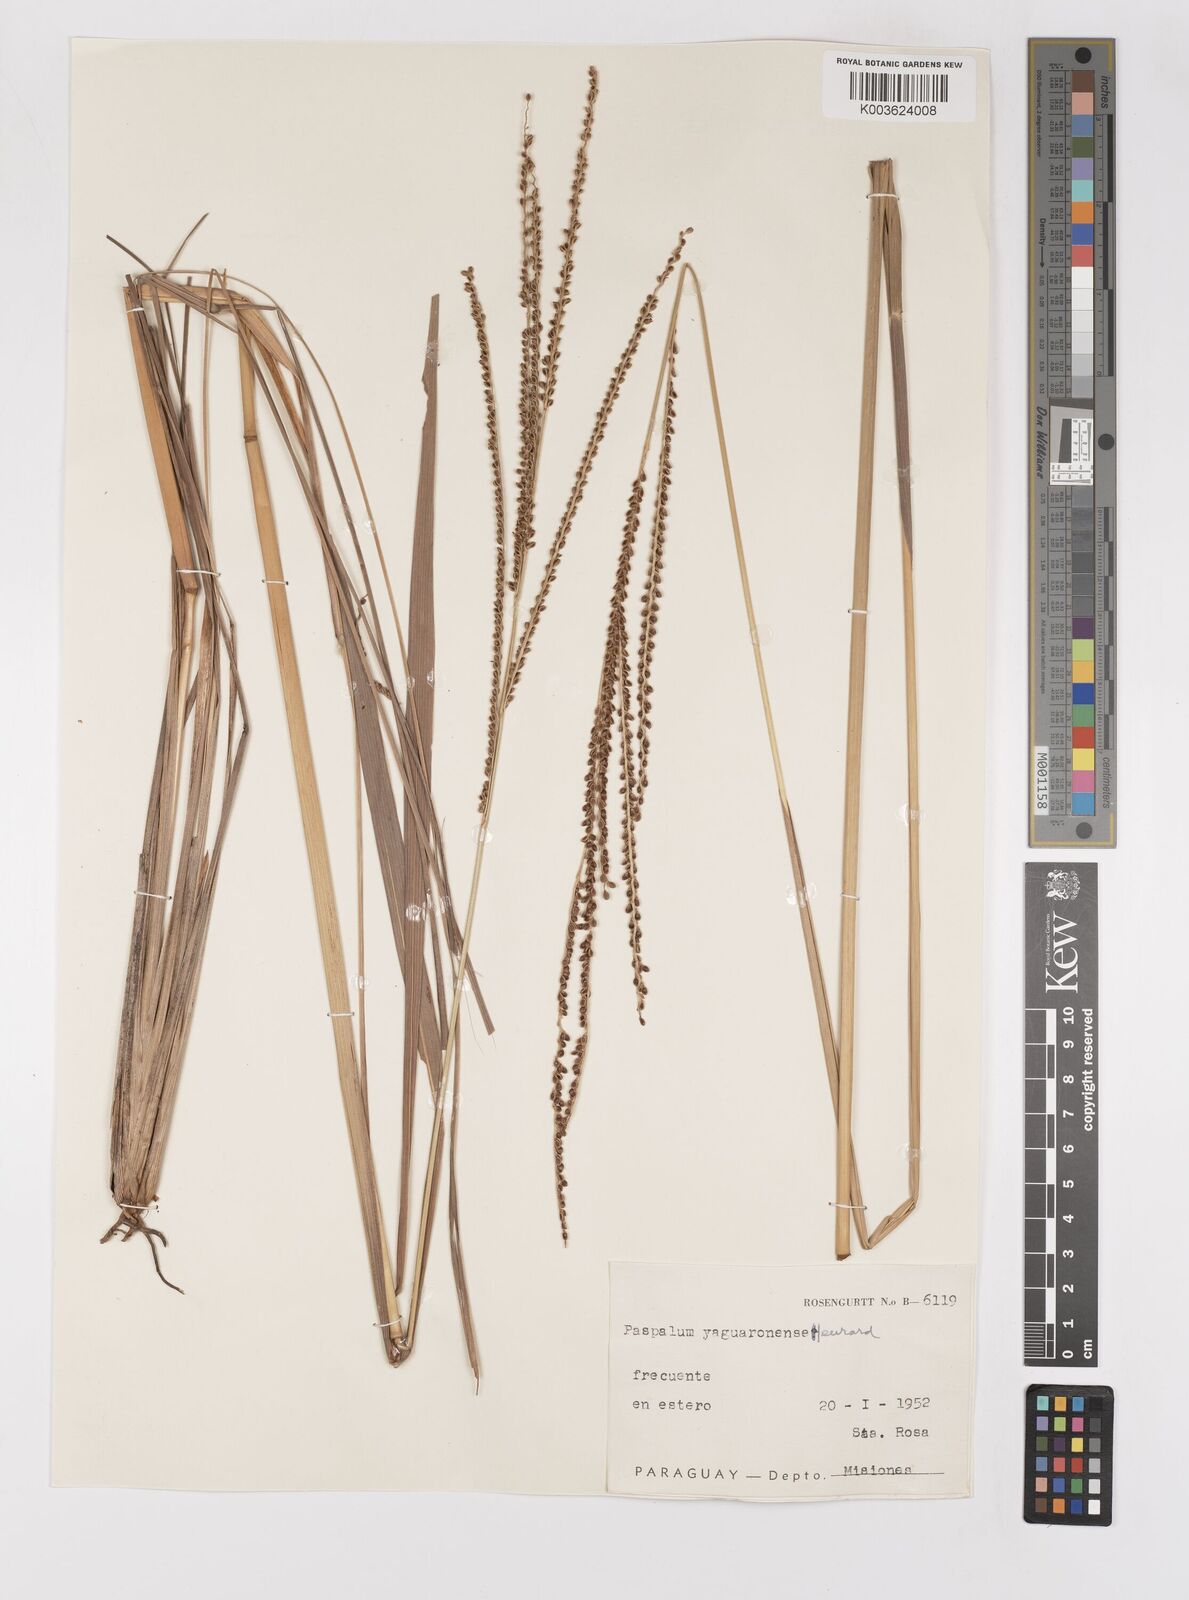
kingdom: Plantae
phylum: Tracheophyta
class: Liliopsida
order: Poales
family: Poaceae
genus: Paspalum
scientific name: Paspalum glaucescens
